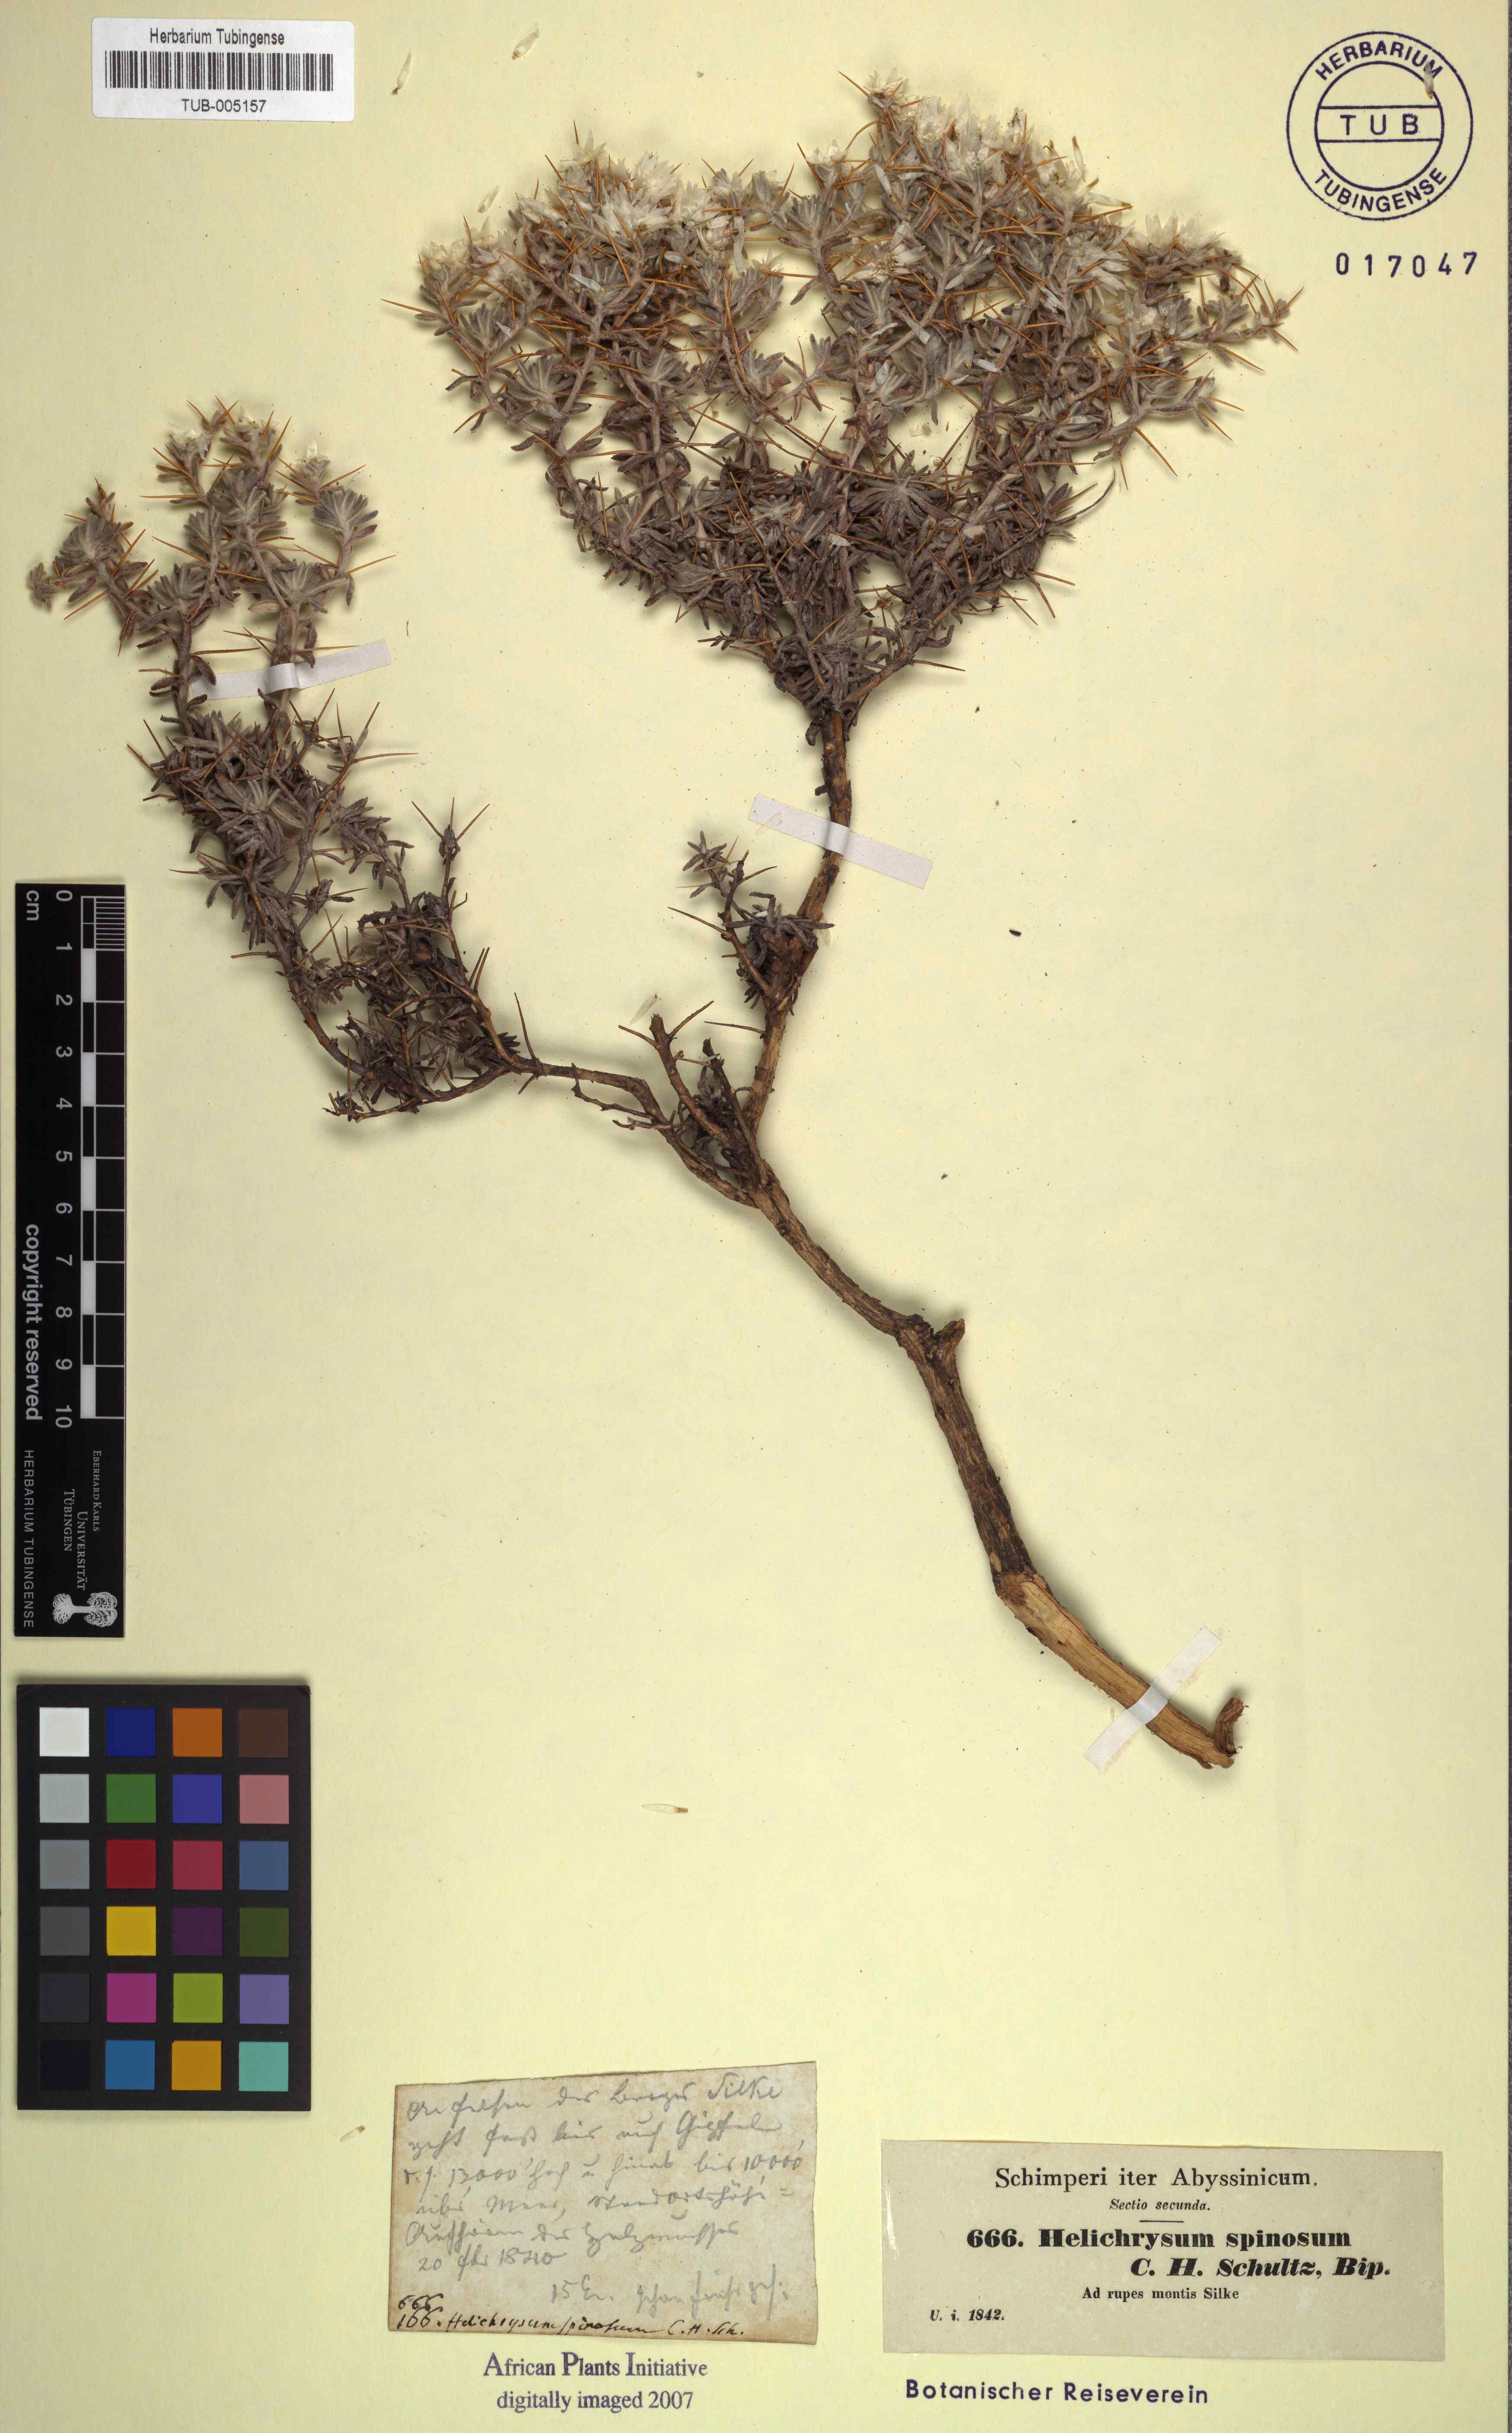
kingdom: Plantae
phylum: Tracheophyta
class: Magnoliopsida
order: Asterales
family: Asteraceae
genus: Helichrysum
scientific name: Helichrysum citrispinum
